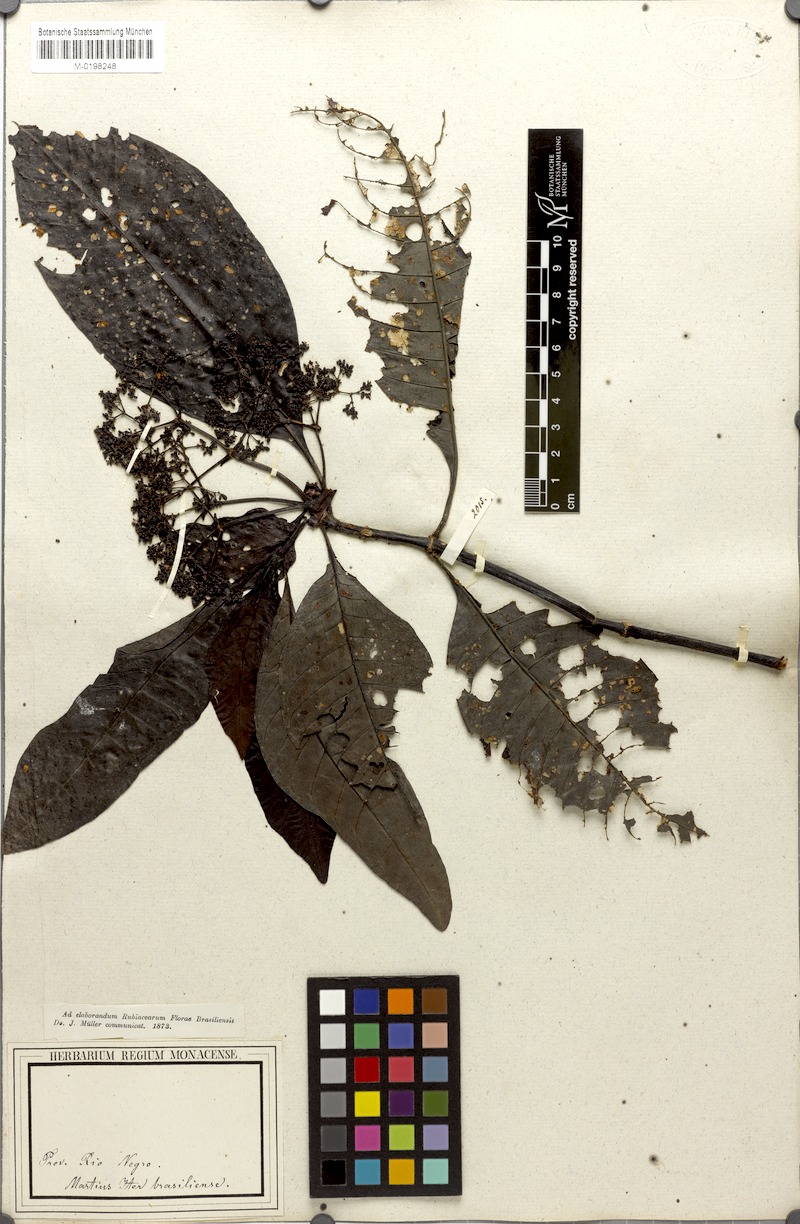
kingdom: Plantae
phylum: Tracheophyta
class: Magnoliopsida
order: Gentianales
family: Rubiaceae
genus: Psychotria
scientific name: Psychotria guianensis
